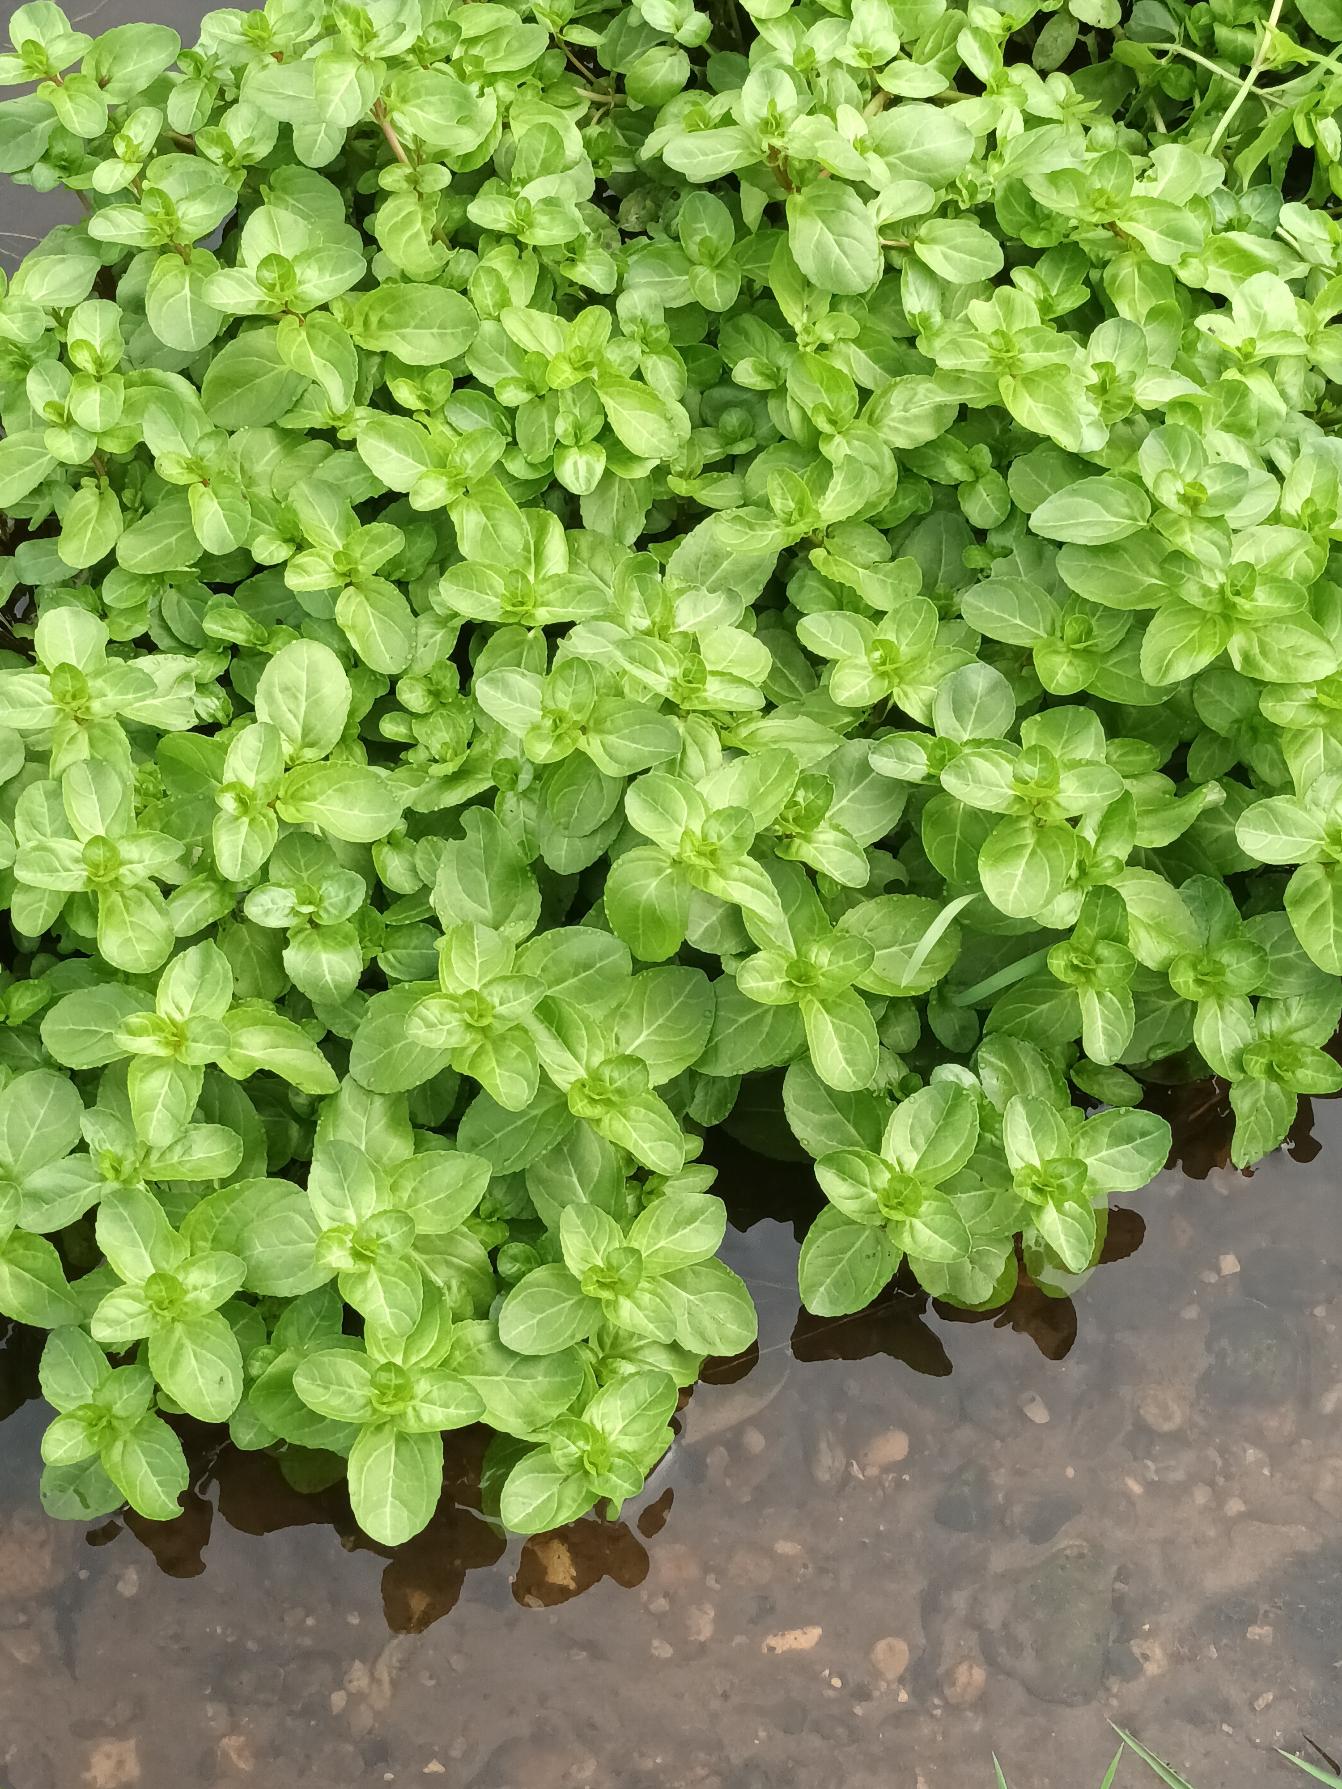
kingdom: Plantae
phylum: Tracheophyta
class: Magnoliopsida
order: Lamiales
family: Plantaginaceae
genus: Veronica
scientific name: Veronica beccabunga
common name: Tykbladet ærenpris
